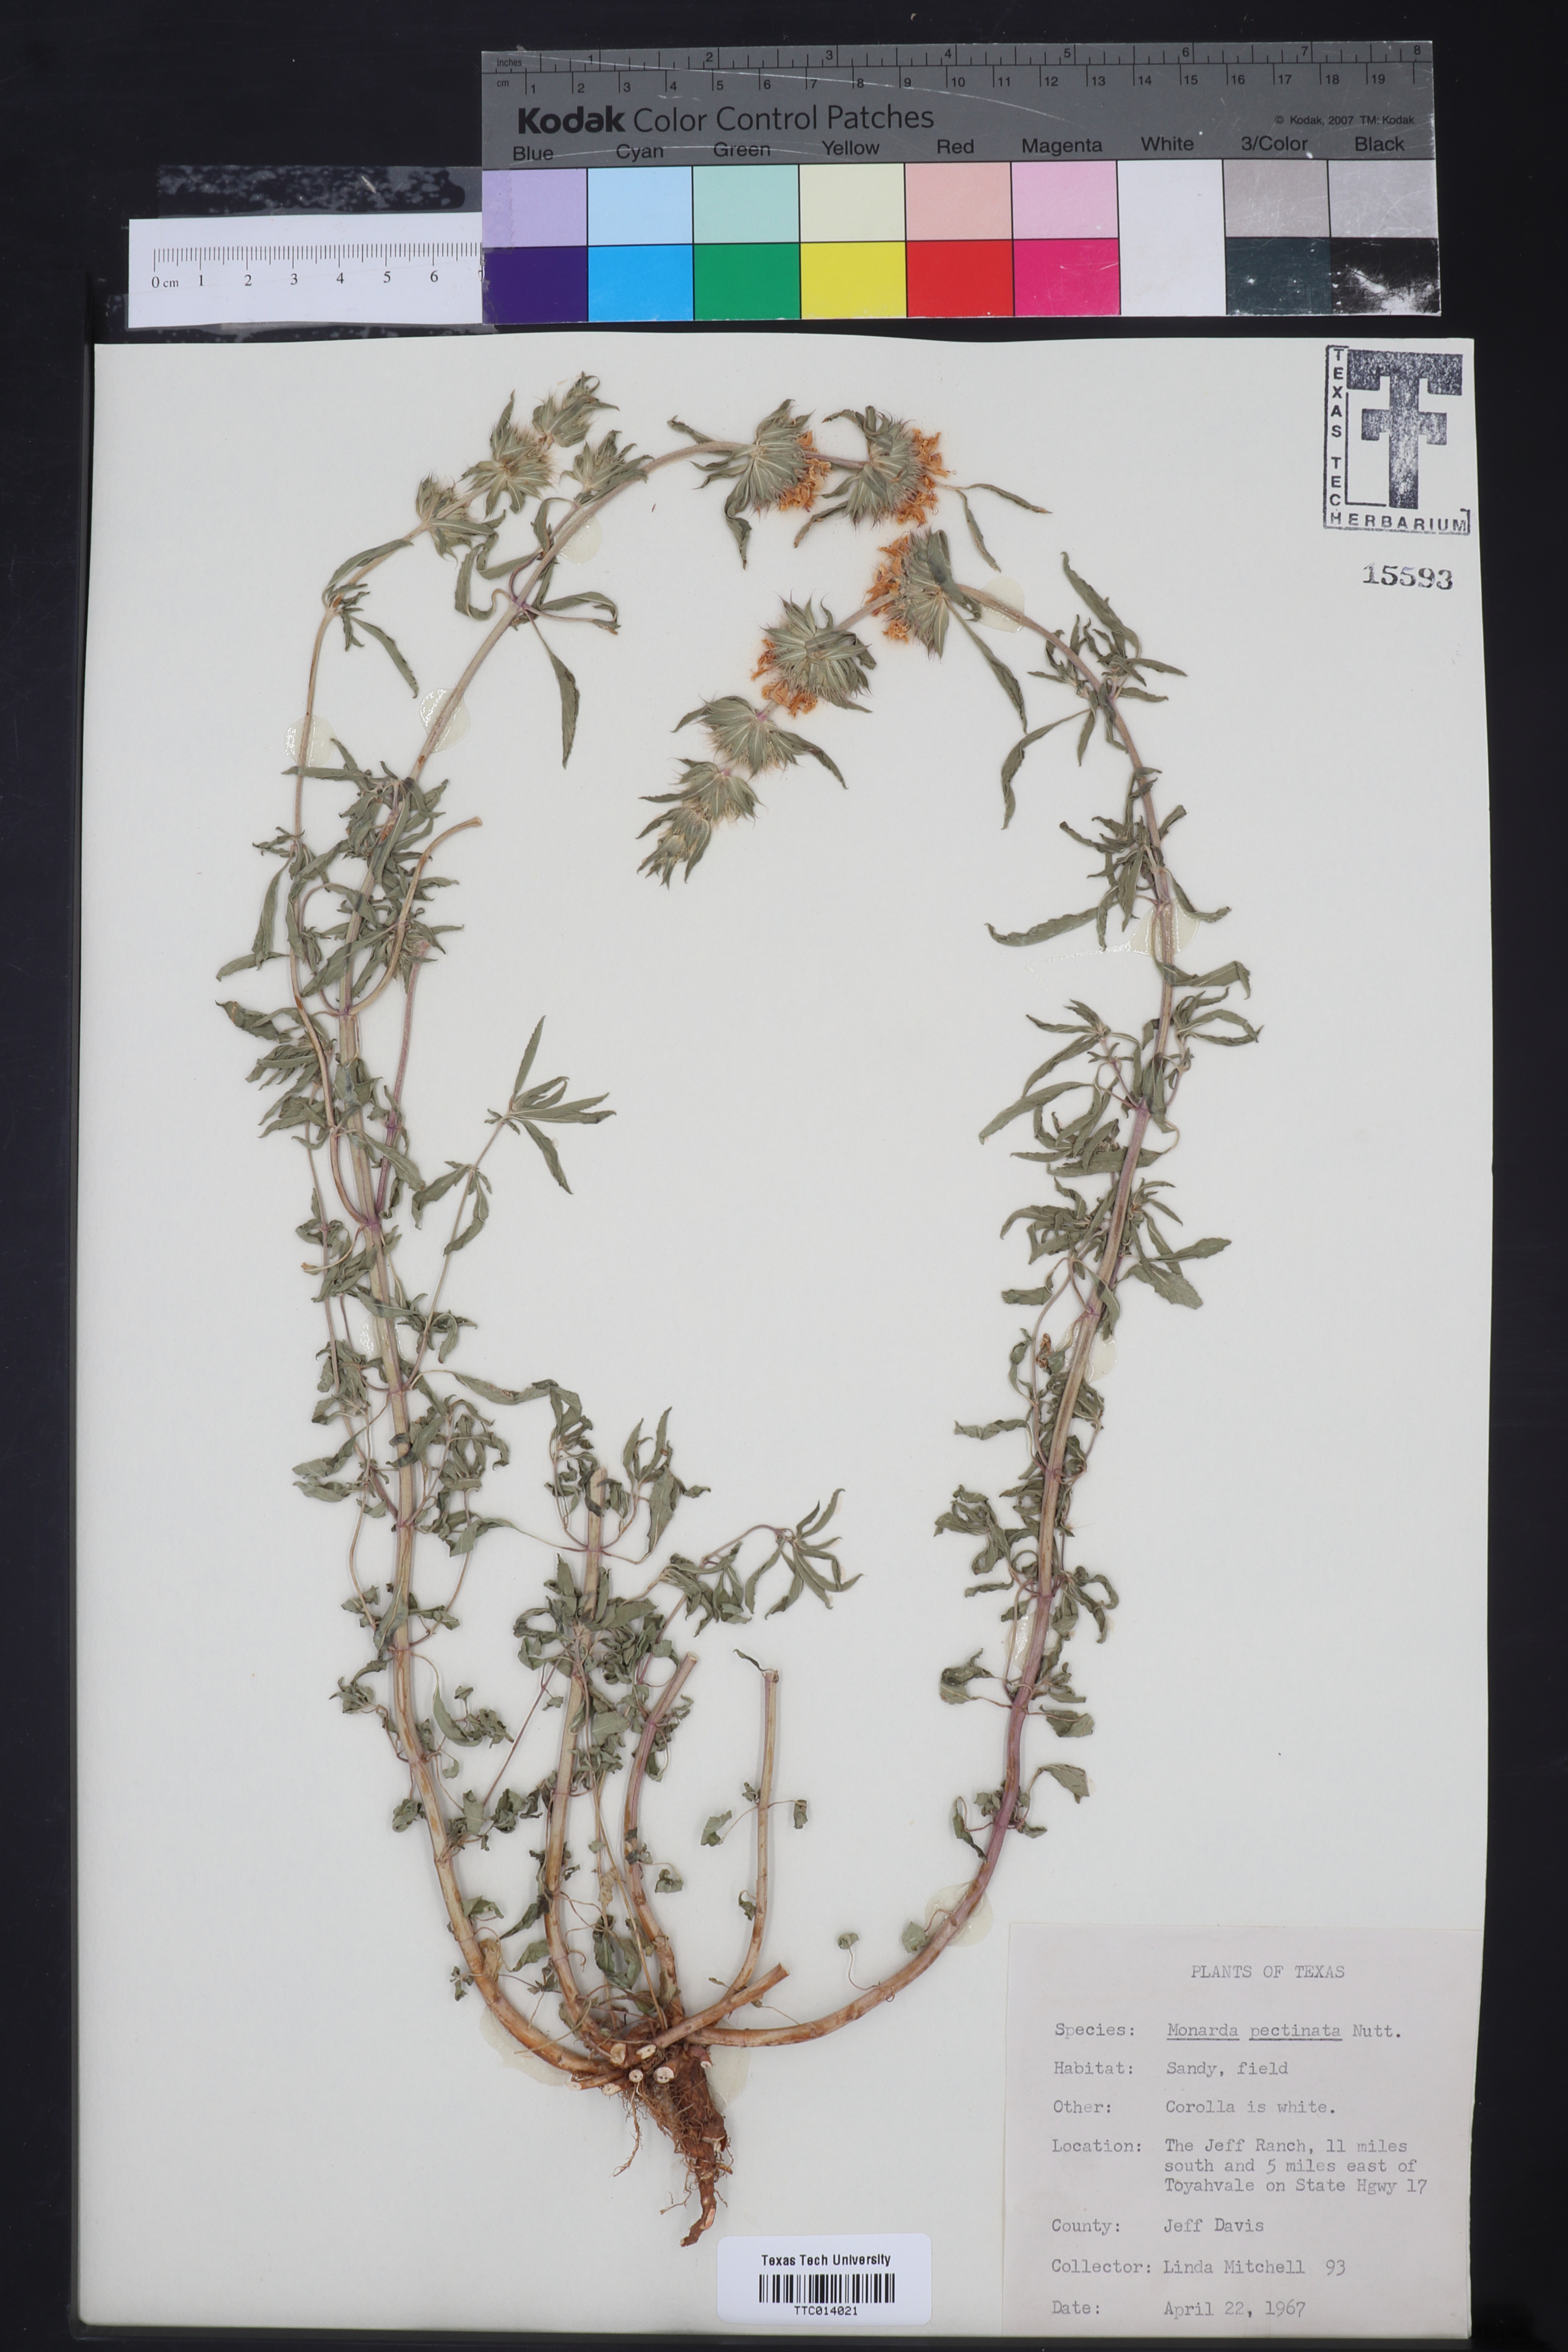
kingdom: Plantae
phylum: Tracheophyta
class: Magnoliopsida
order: Lamiales
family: Lamiaceae
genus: Monarda
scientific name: Monarda pectinata
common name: Plains beebalm
